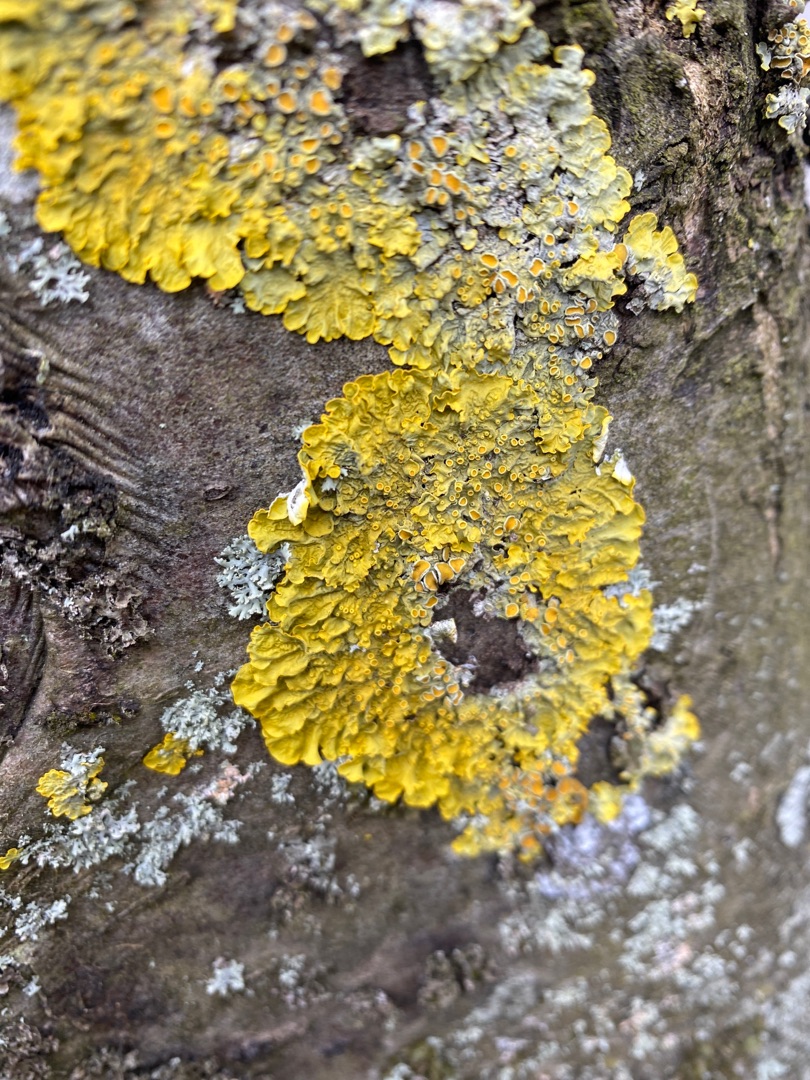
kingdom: Fungi
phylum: Ascomycota
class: Lecanoromycetes
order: Teloschistales
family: Teloschistaceae
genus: Xanthoria
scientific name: Xanthoria parietina
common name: Almindelig væggelav
